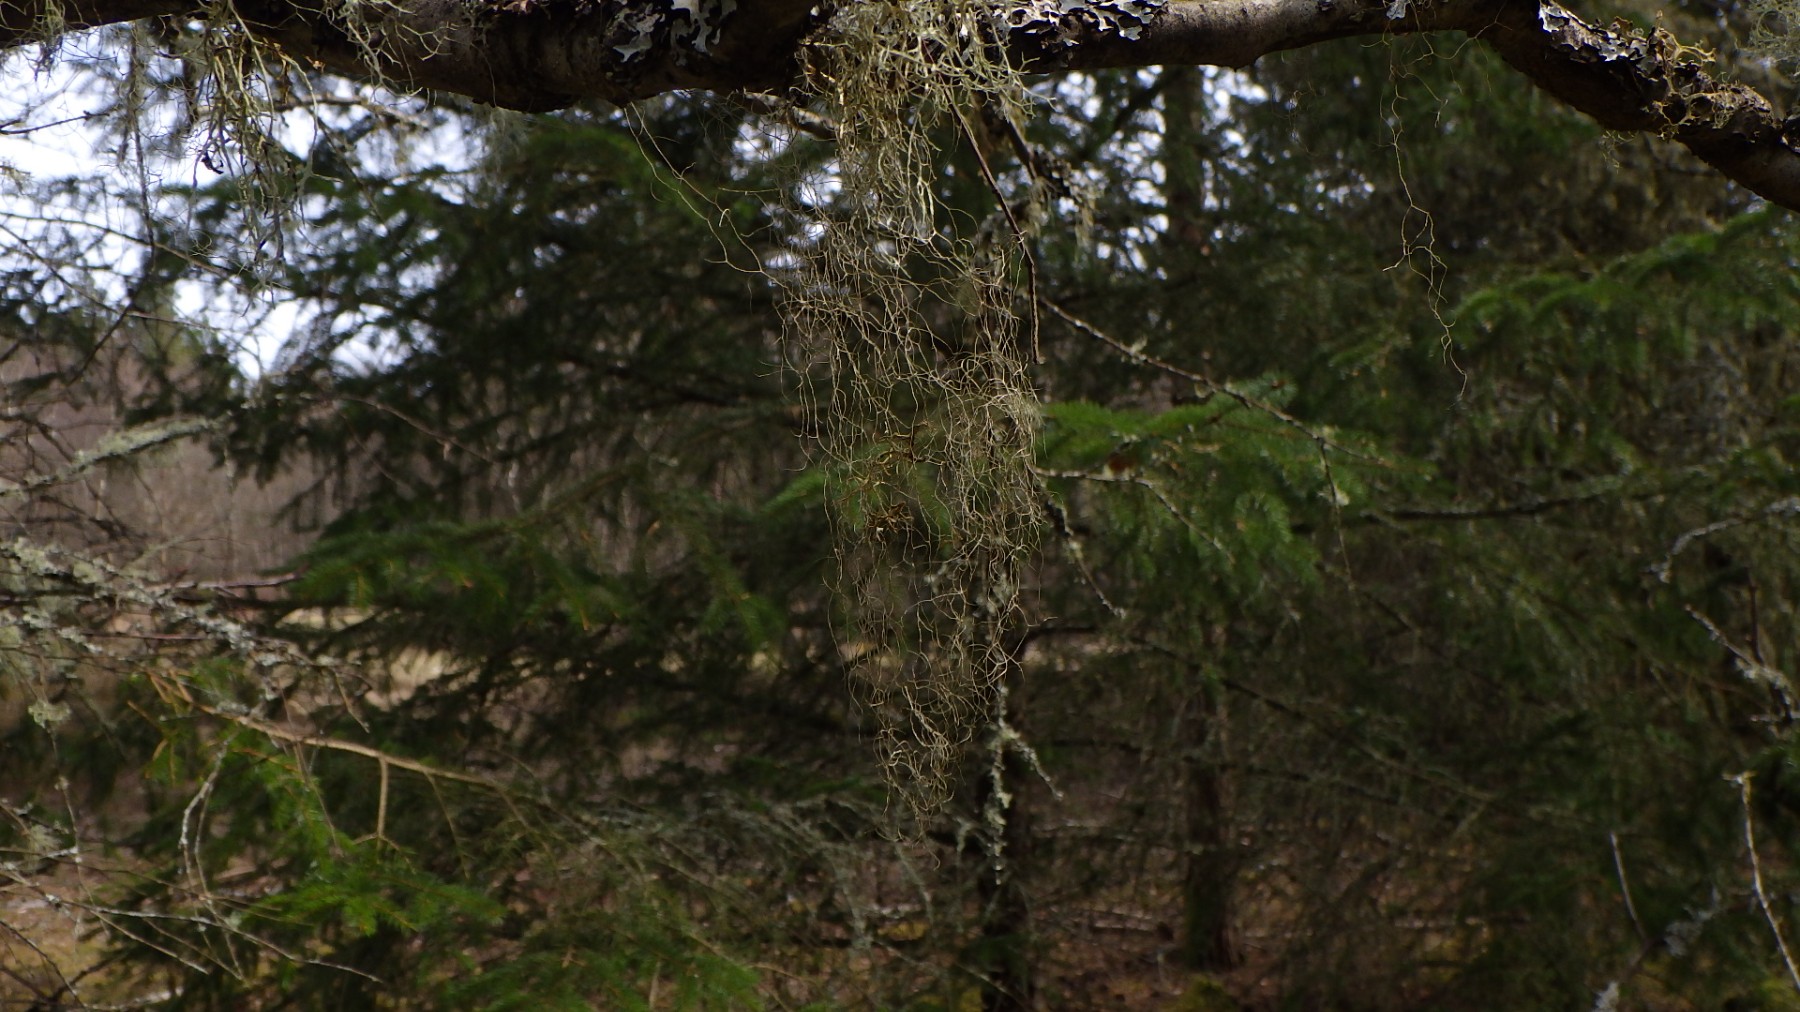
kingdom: Fungi
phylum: Ascomycota
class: Lecanoromycetes
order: Lecanorales
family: Parmeliaceae
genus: Bryoria
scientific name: Bryoria capillaris
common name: grå mankelav
